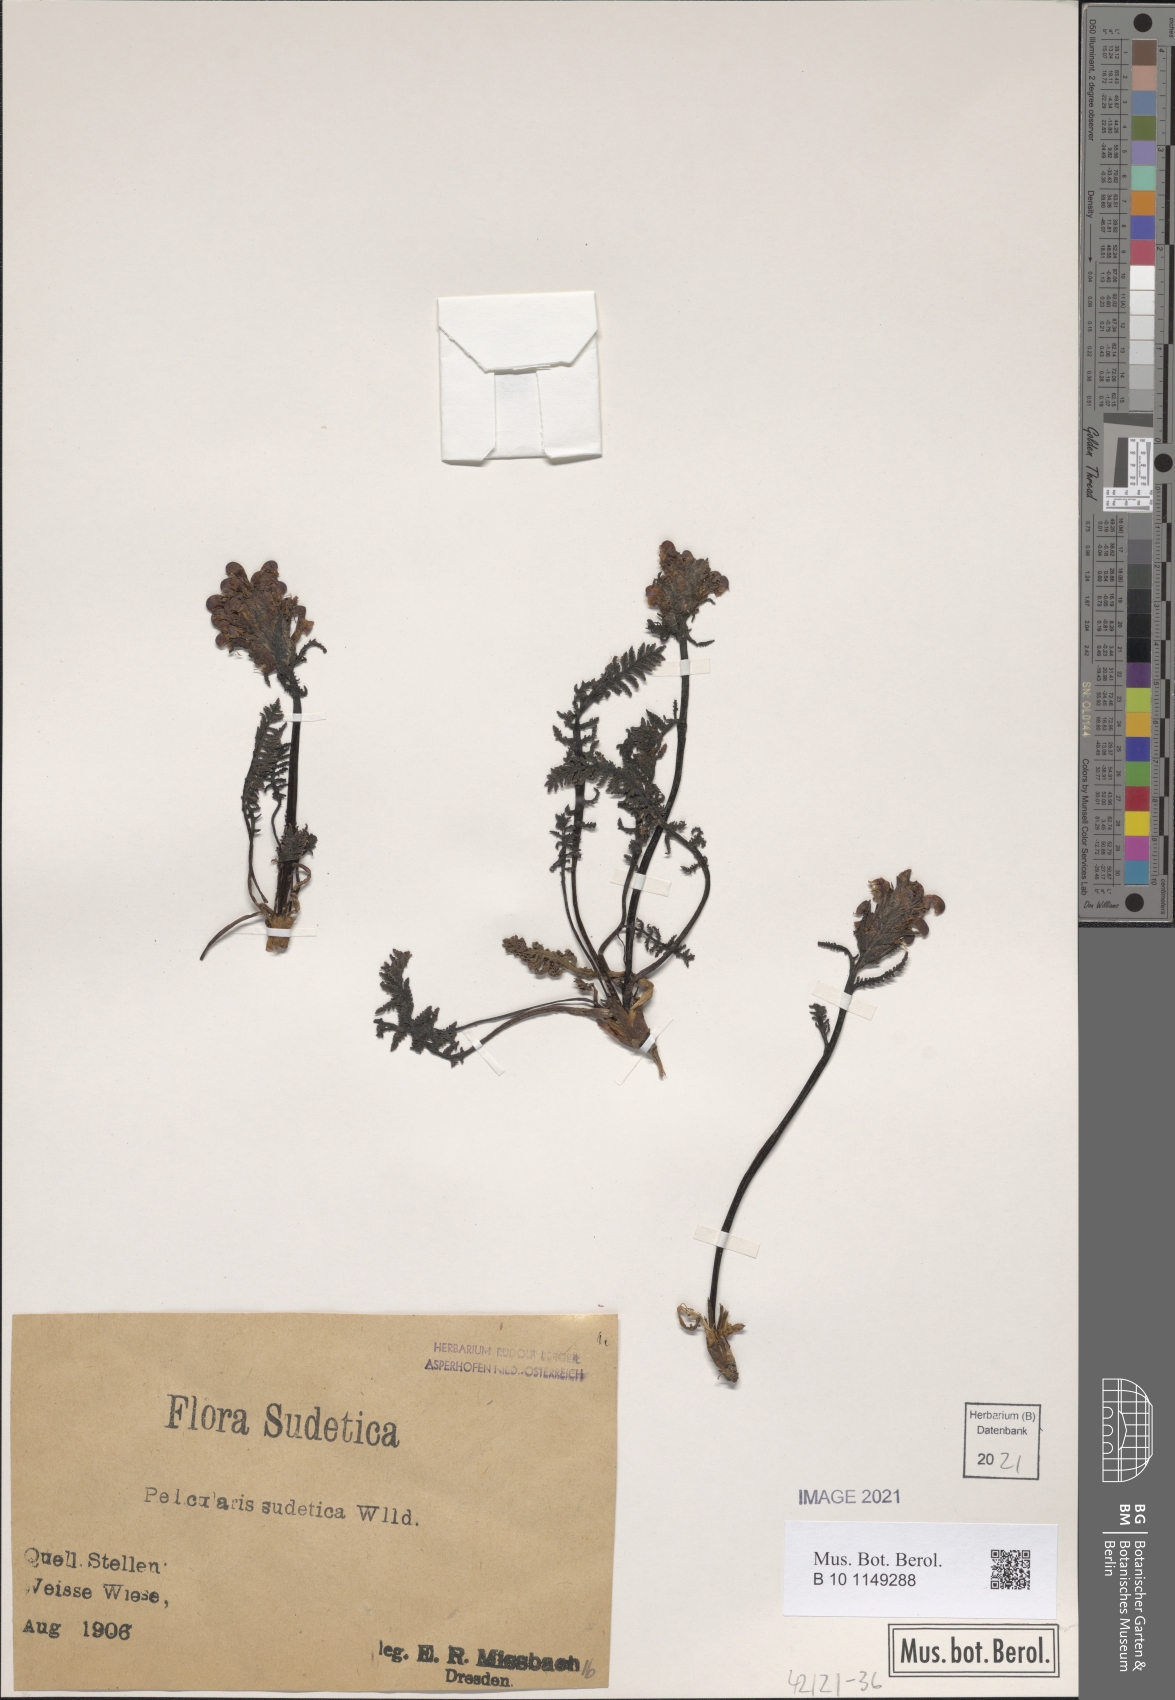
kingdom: Plantae
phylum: Tracheophyta
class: Magnoliopsida
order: Lamiales
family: Orobanchaceae
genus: Pedicularis
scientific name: Pedicularis sudetica
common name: Sudeten lousewort
